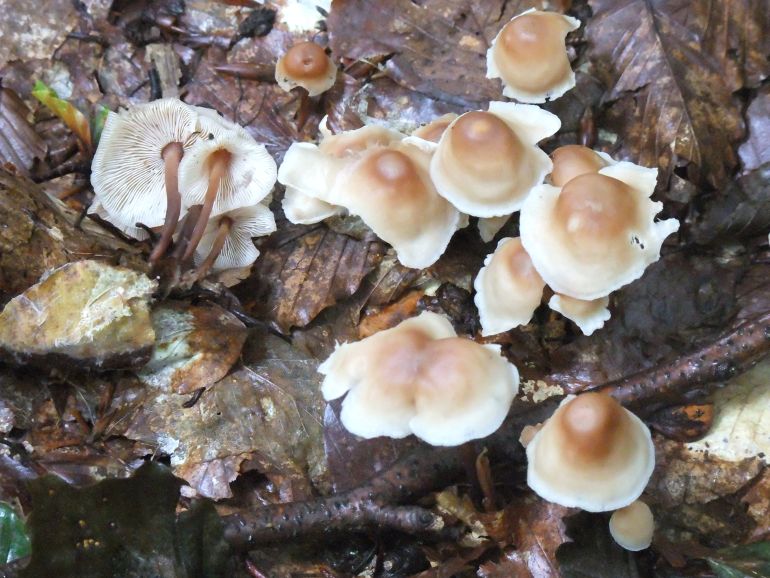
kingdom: Fungi
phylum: Basidiomycota
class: Agaricomycetes
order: Agaricales
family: Omphalotaceae
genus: Collybiopsis
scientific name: Collybiopsis confluens
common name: knippe-fladhat
